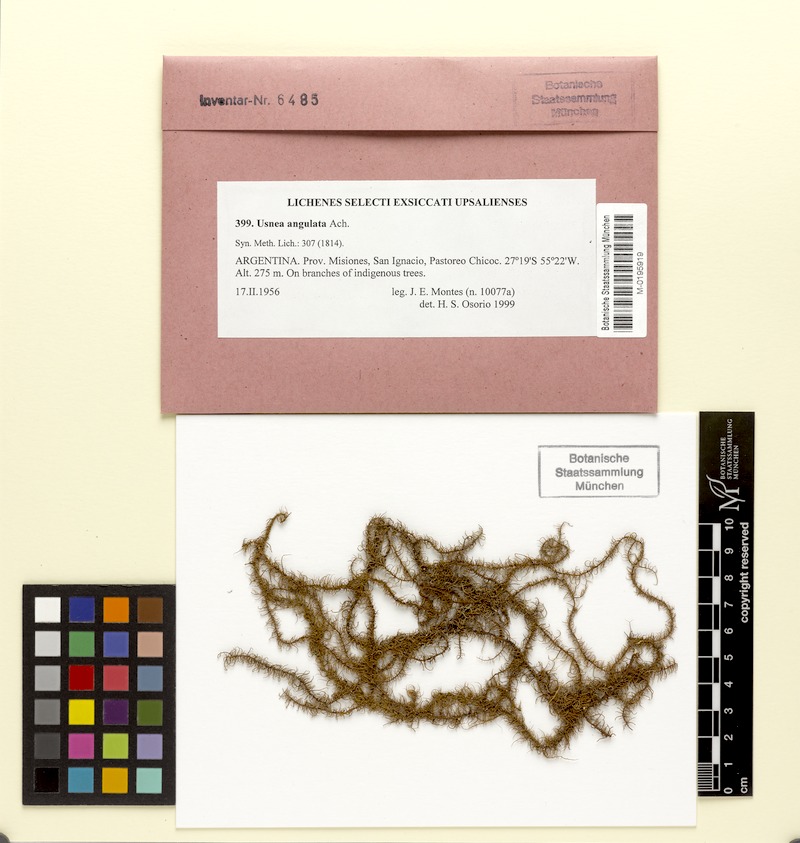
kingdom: Fungi
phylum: Ascomycota
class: Lecanoromycetes
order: Lecanorales
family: Parmeliaceae
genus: Usnea
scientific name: Usnea angulata
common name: Old-man’s beard lichen
